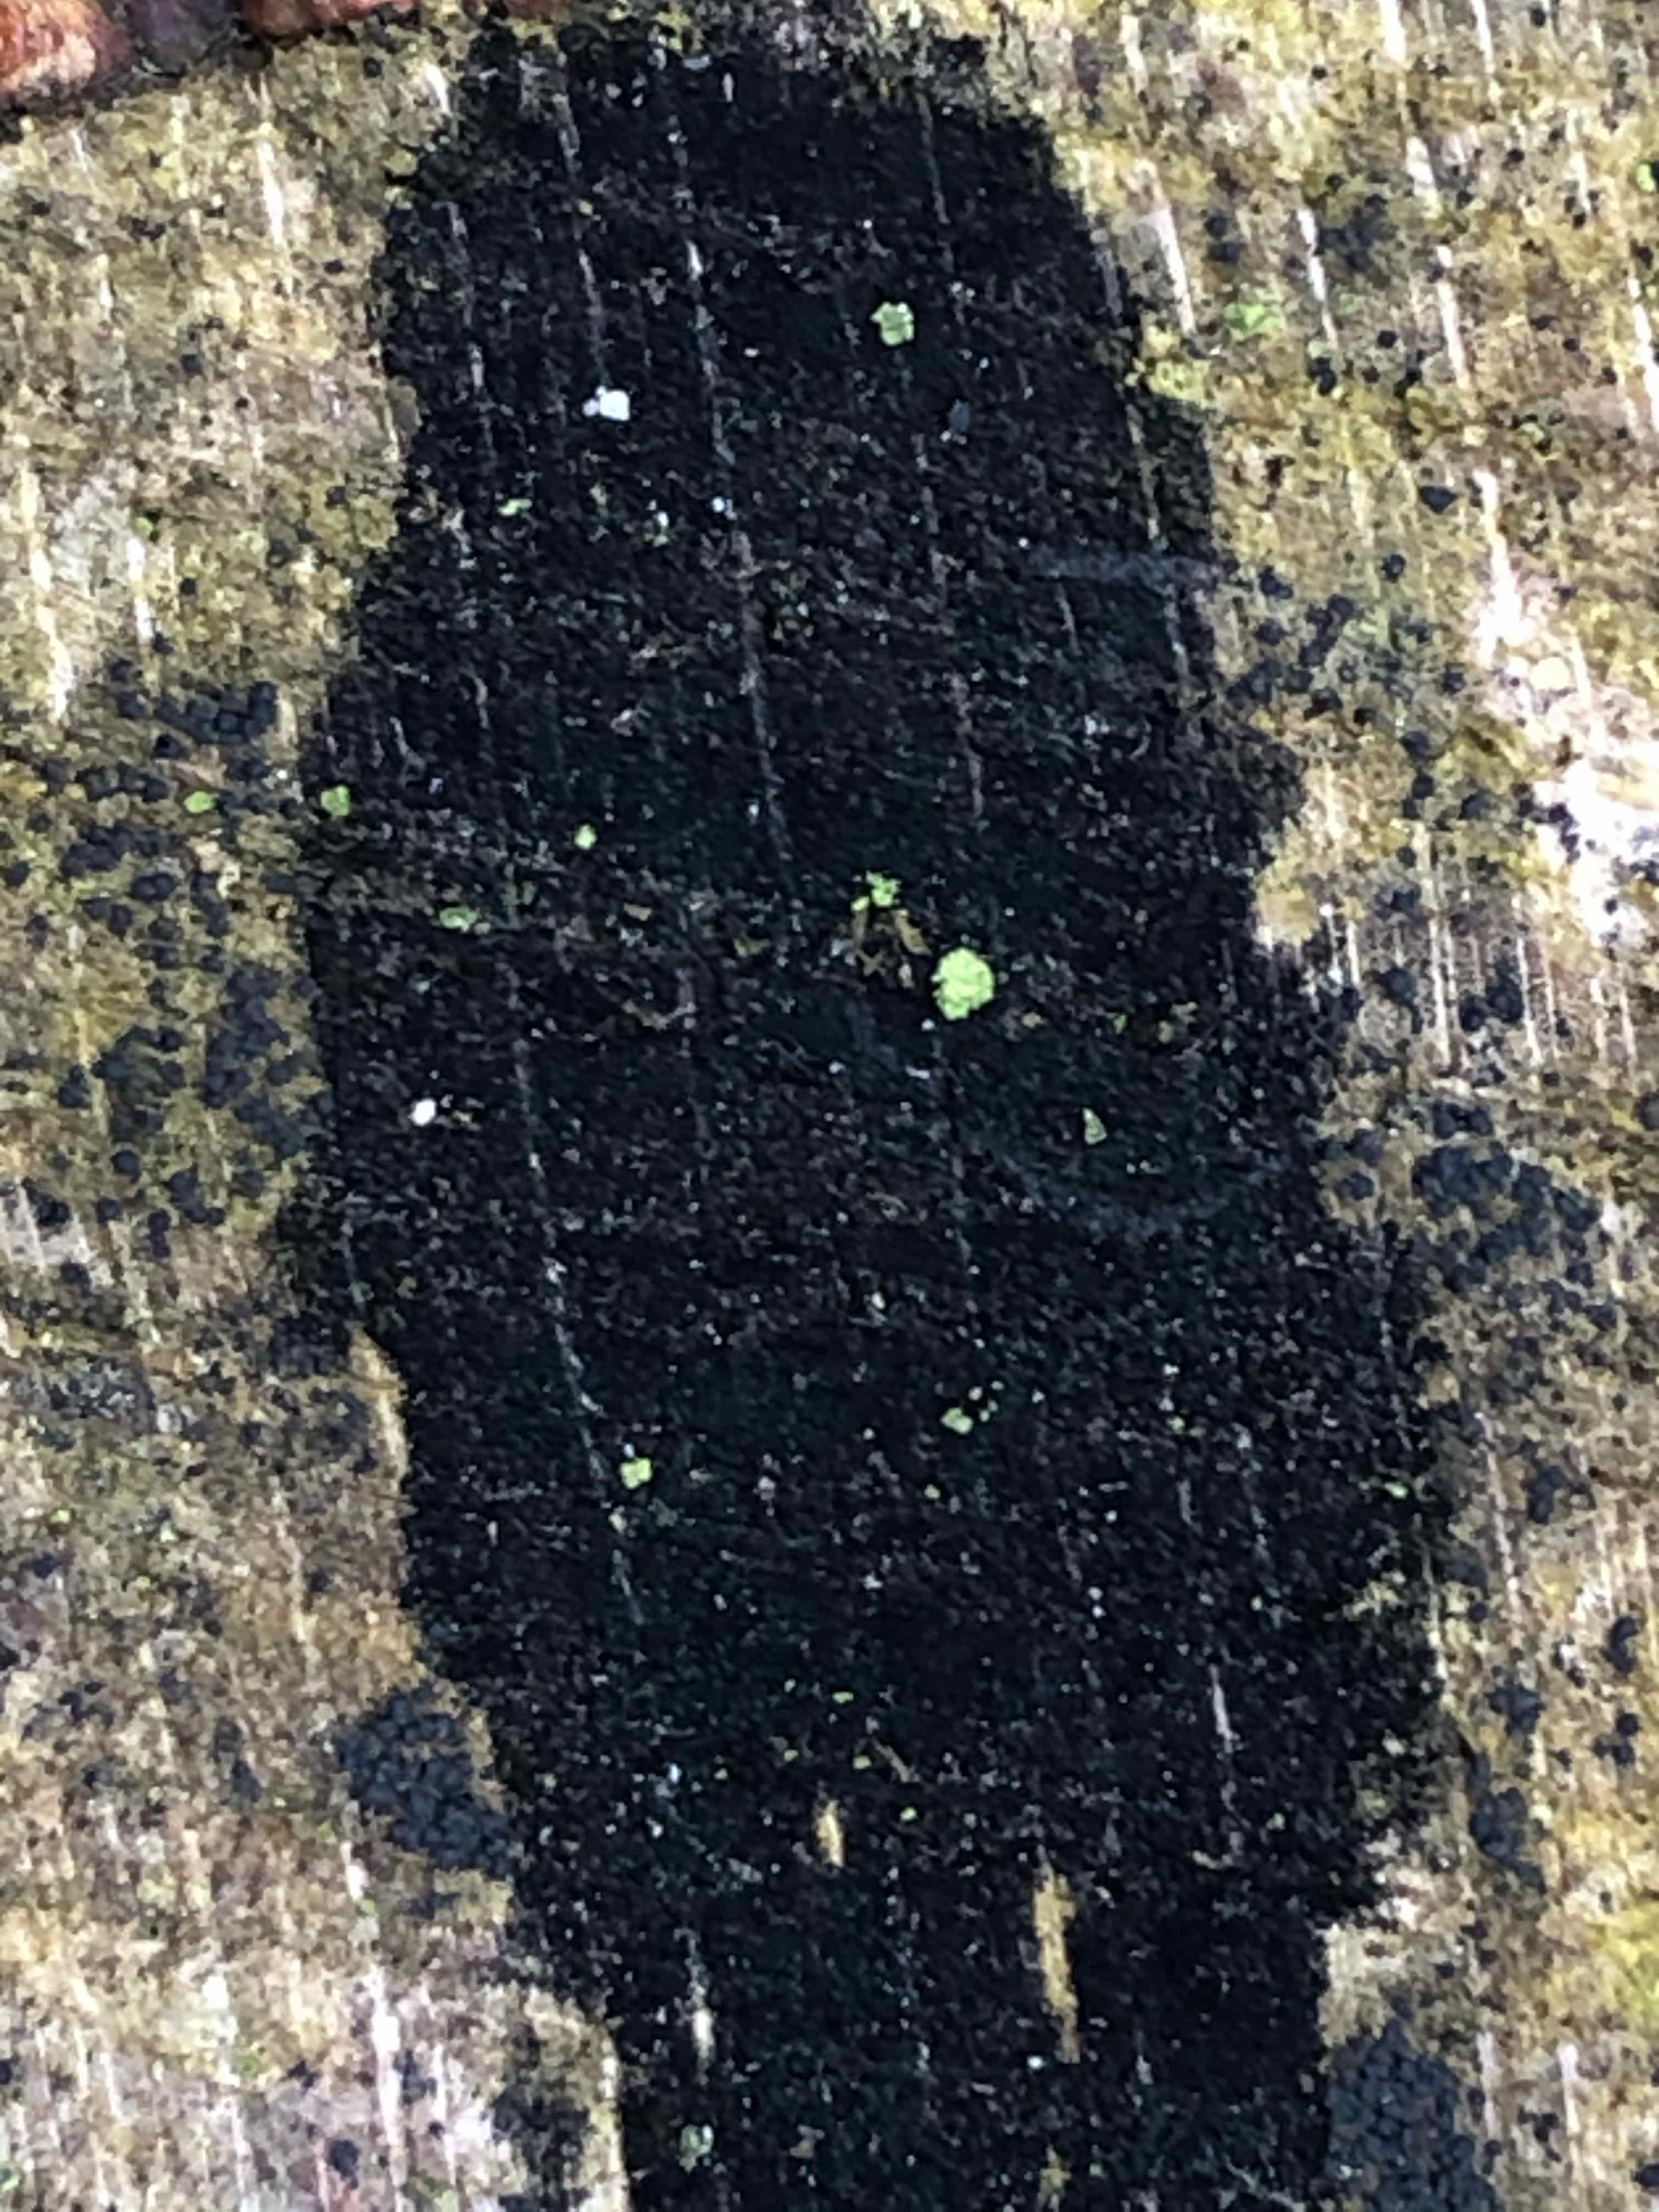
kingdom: Fungi
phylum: Ascomycota
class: Leotiomycetes
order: Helotiales
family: Helotiaceae
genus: Bispora
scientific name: Bispora pallescens
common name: måtte-snitskive
